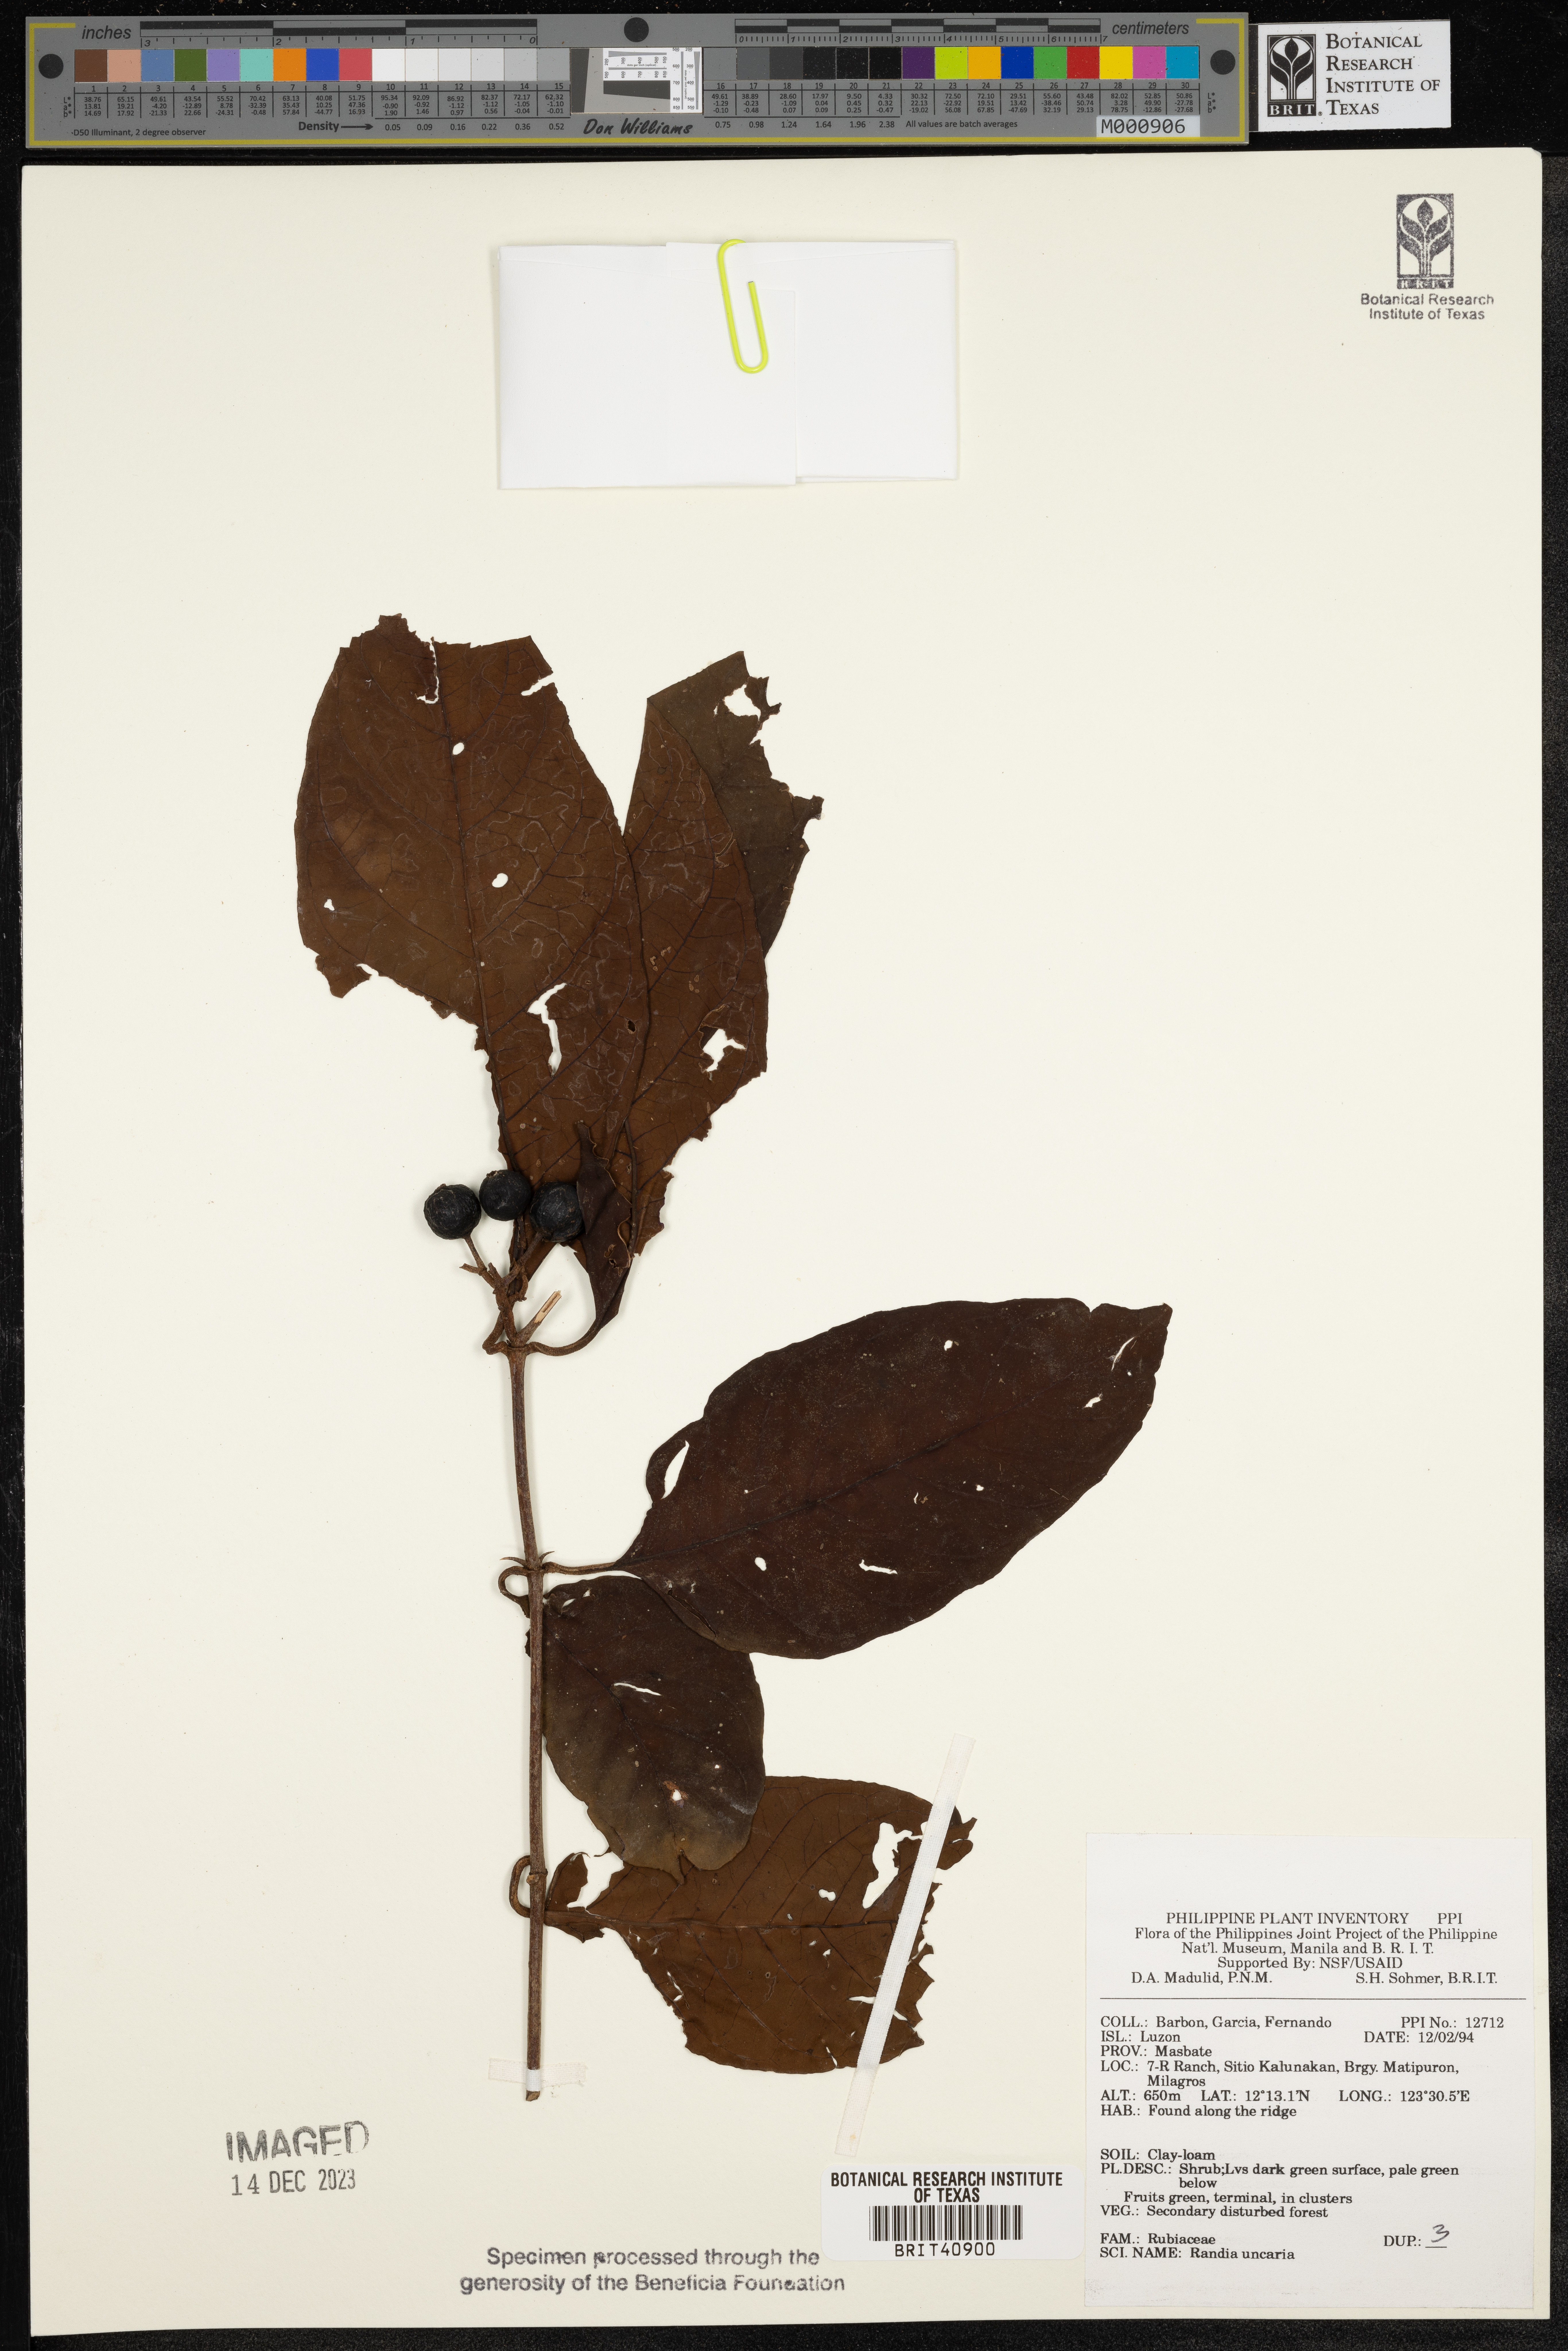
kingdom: Plantae
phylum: Tracheophyta
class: Magnoliopsida
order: Gentianales
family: Rubiaceae
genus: Oxyceros
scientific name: Oxyceros bispinosus
